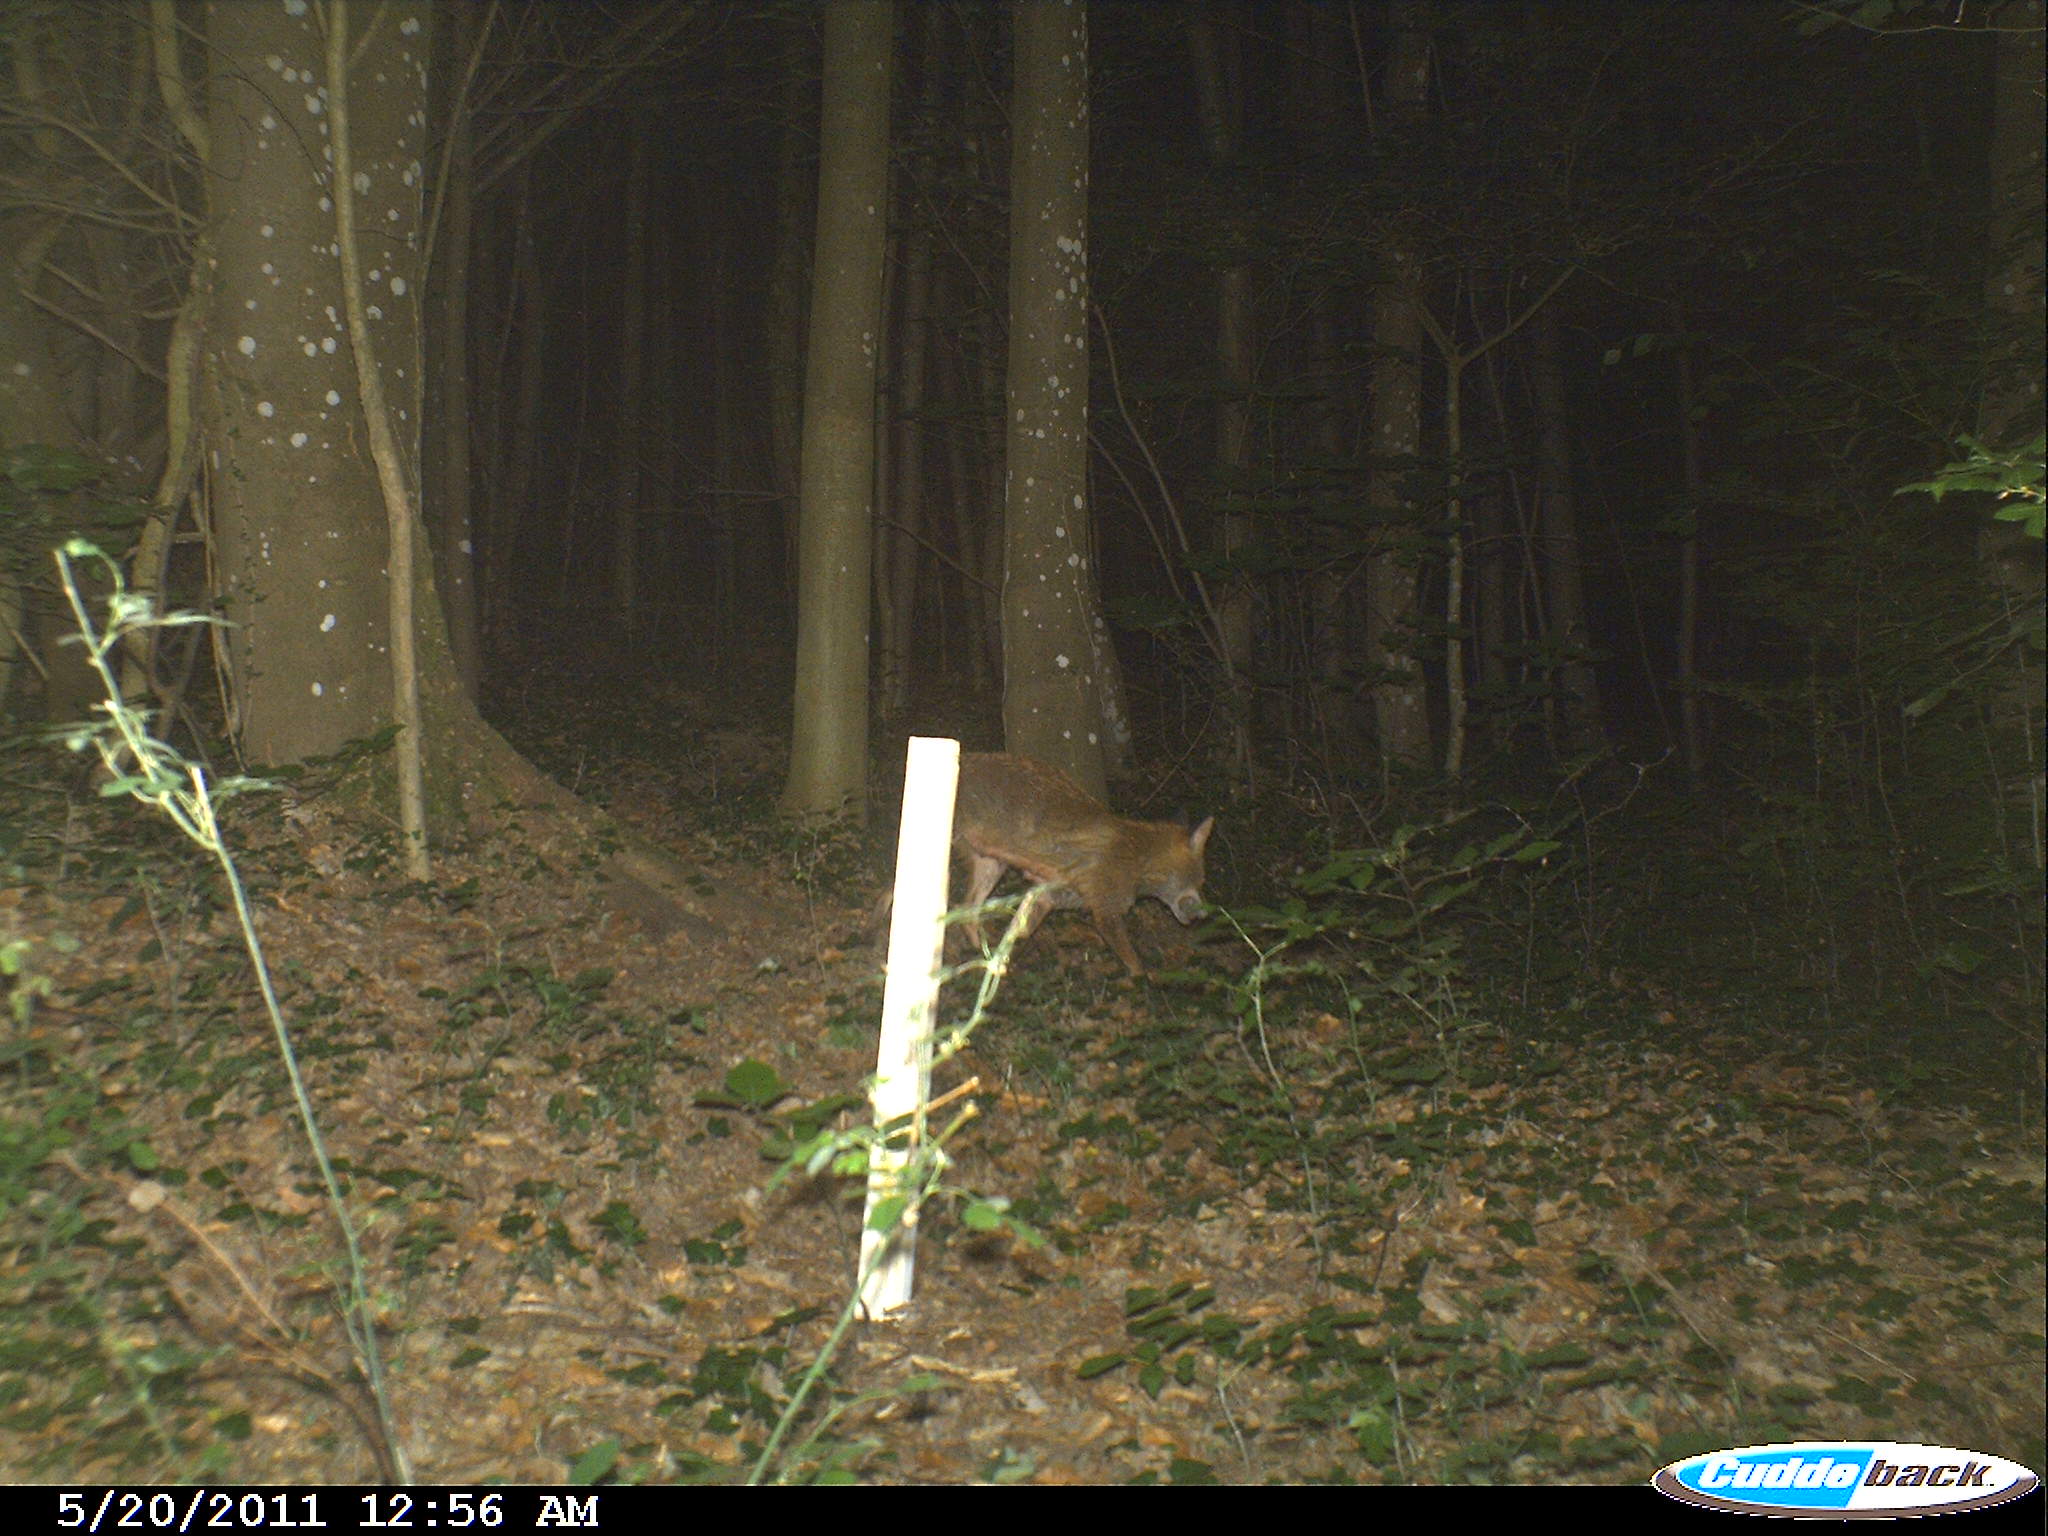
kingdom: Animalia
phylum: Chordata
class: Mammalia
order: Carnivora
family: Canidae
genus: Vulpes
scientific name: Vulpes vulpes
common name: Red fox
